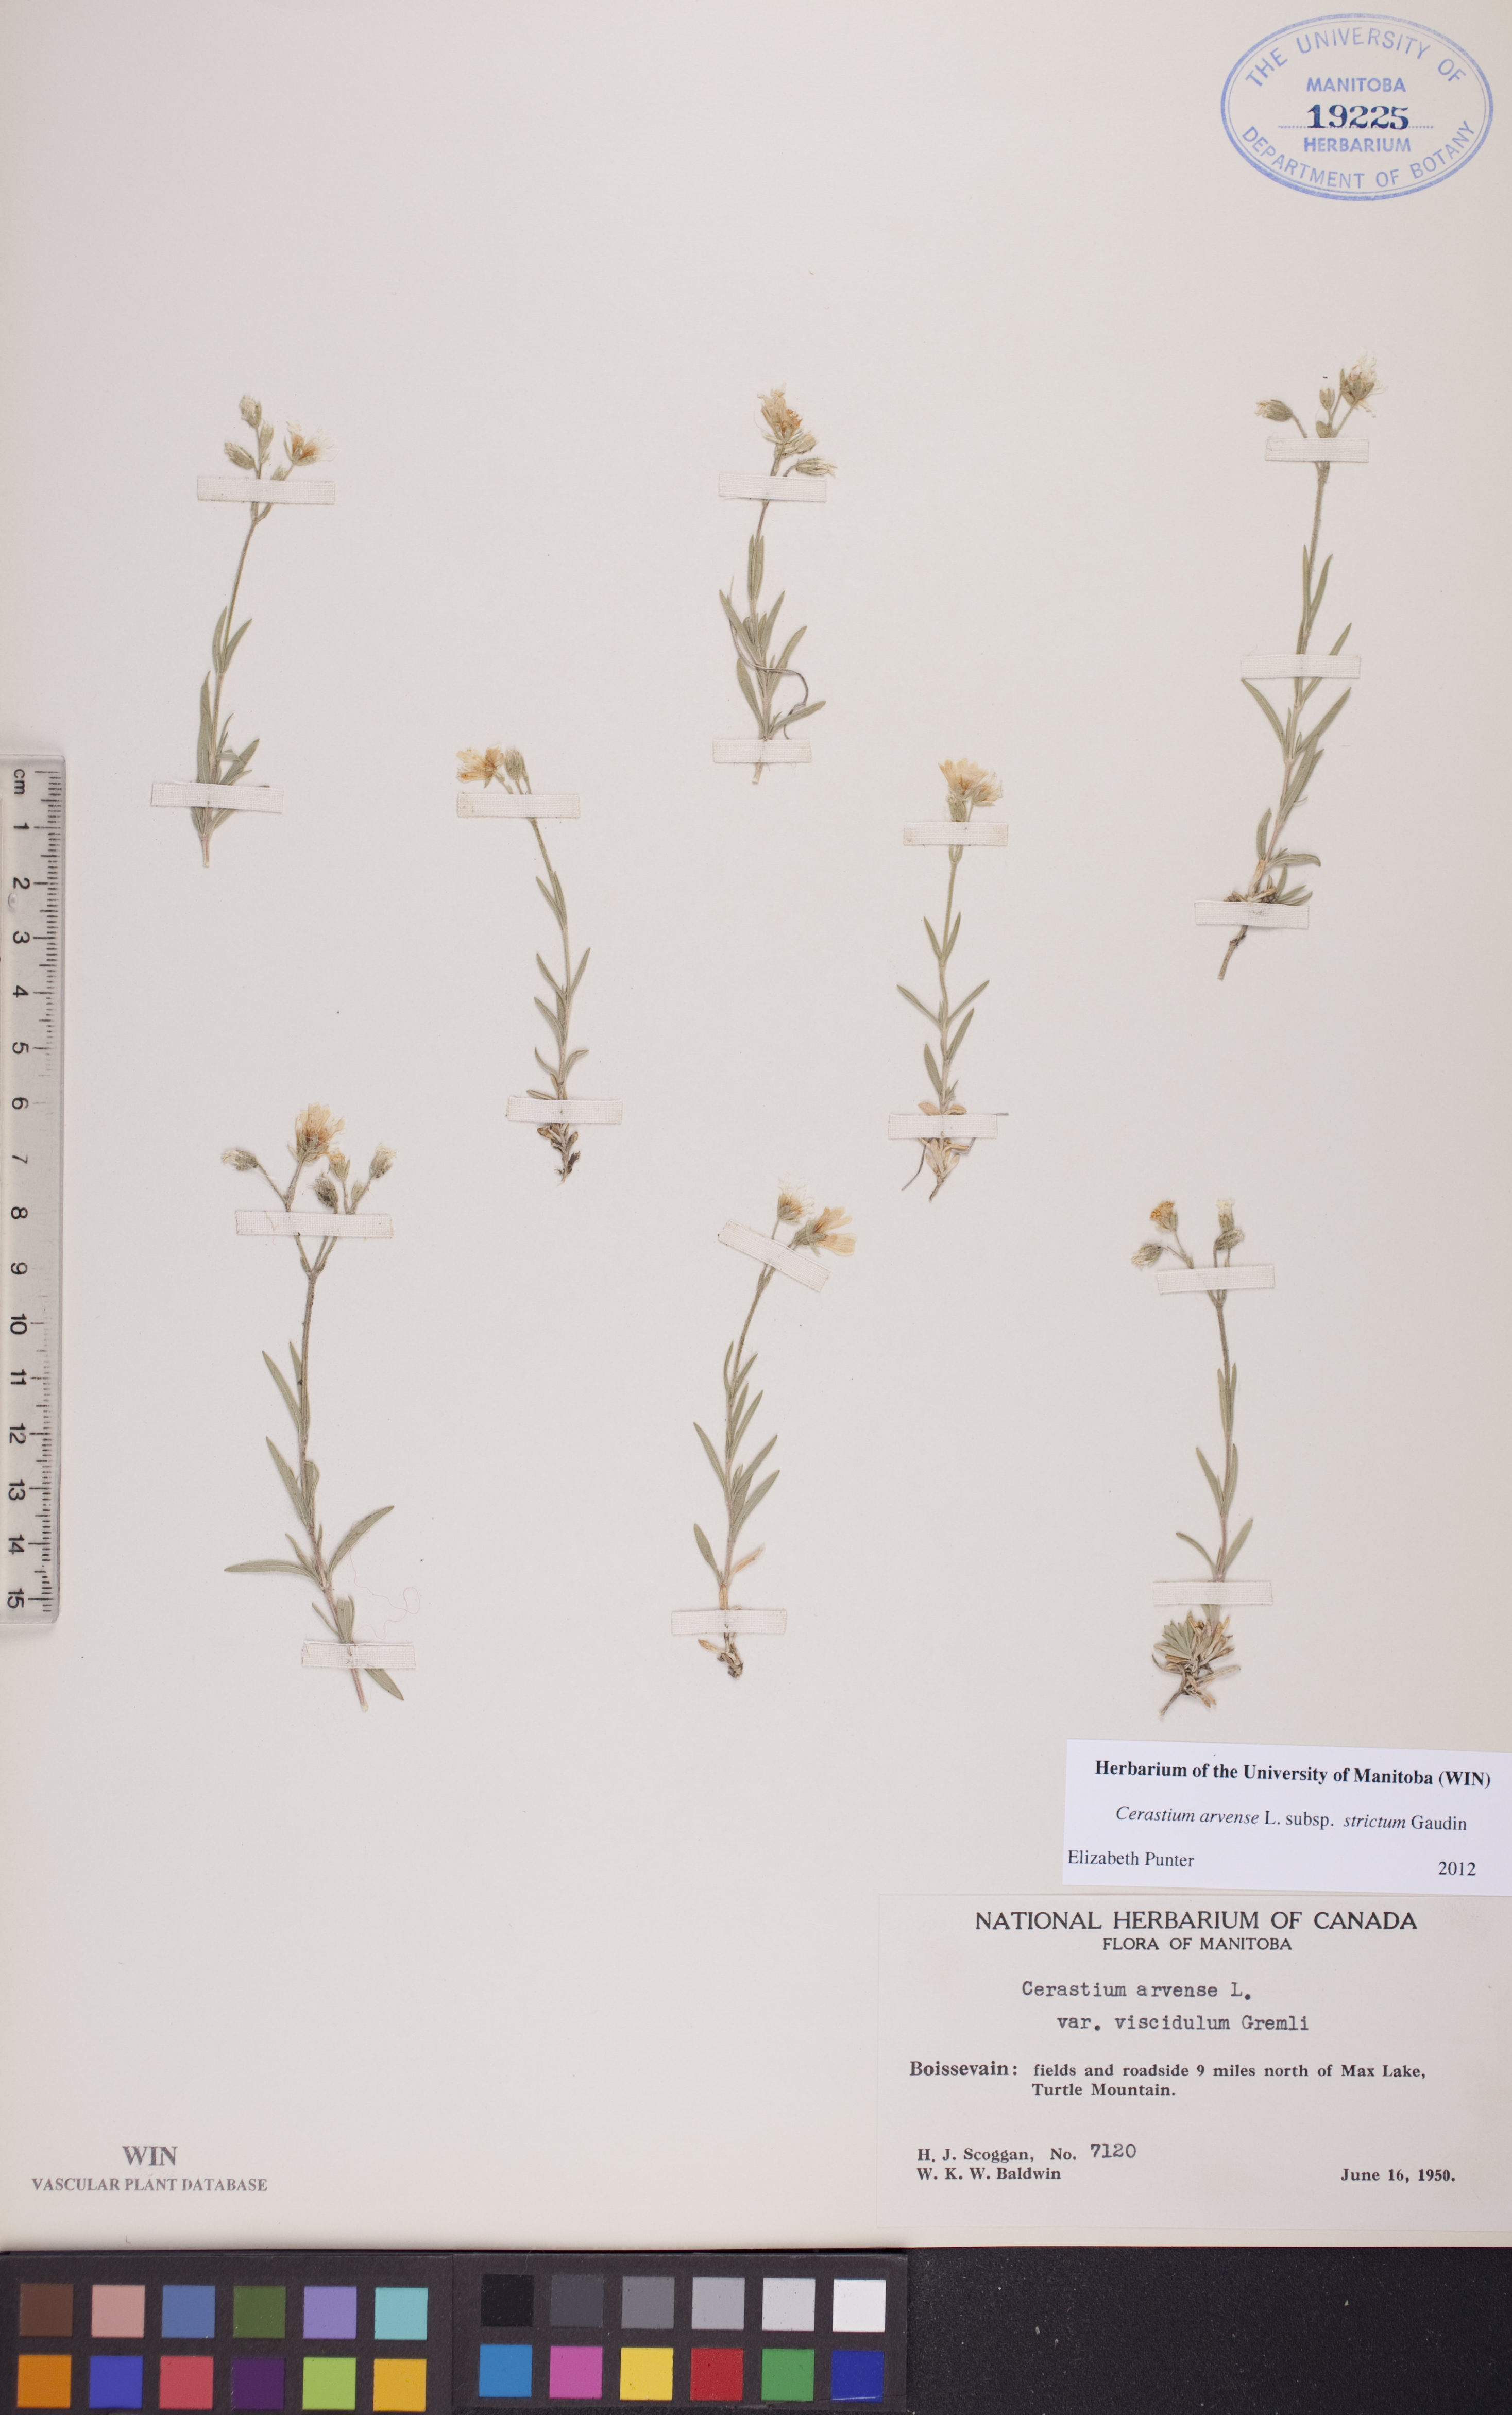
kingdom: Plantae
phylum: Tracheophyta
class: Magnoliopsida
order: Caryophyllales
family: Caryophyllaceae
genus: Cerastium
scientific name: Cerastium elongatum
